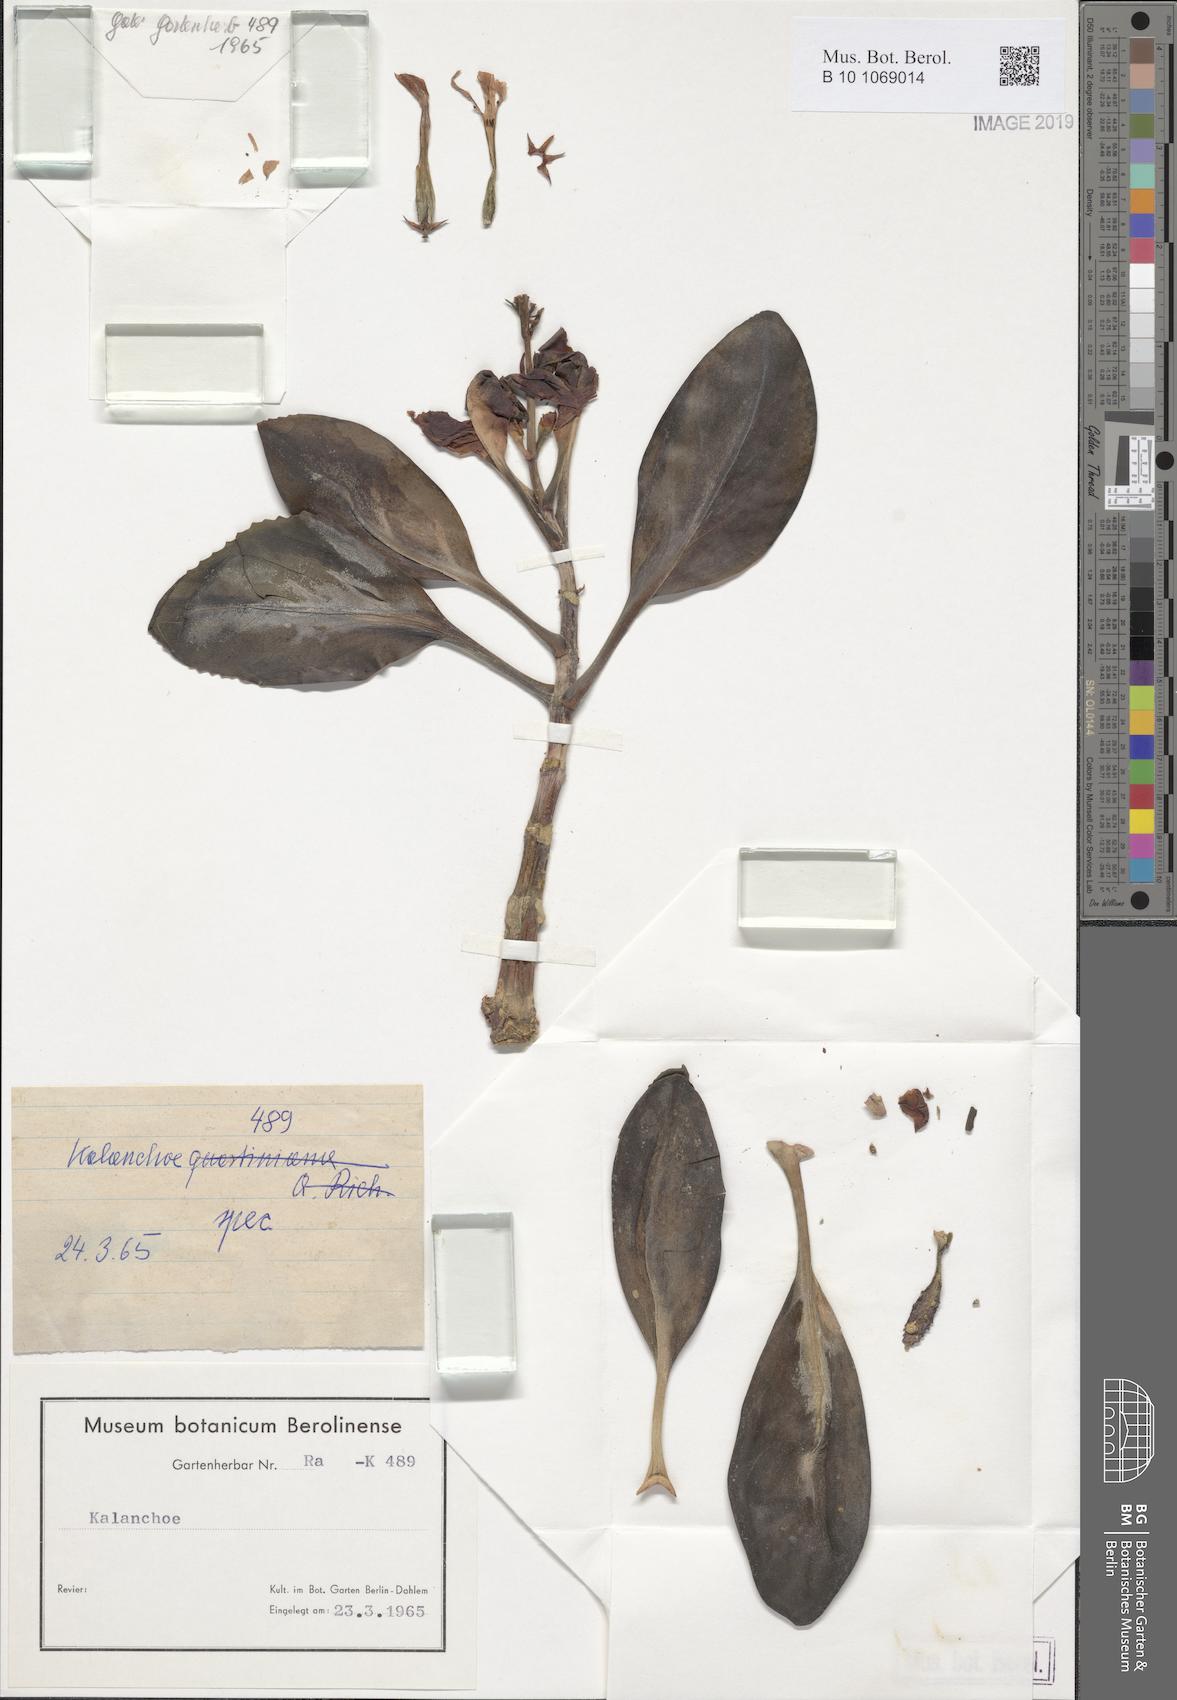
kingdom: Plantae
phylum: Tracheophyta
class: Magnoliopsida
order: Saxifragales
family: Crassulaceae
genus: Kalanchoe
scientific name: Kalanchoe
